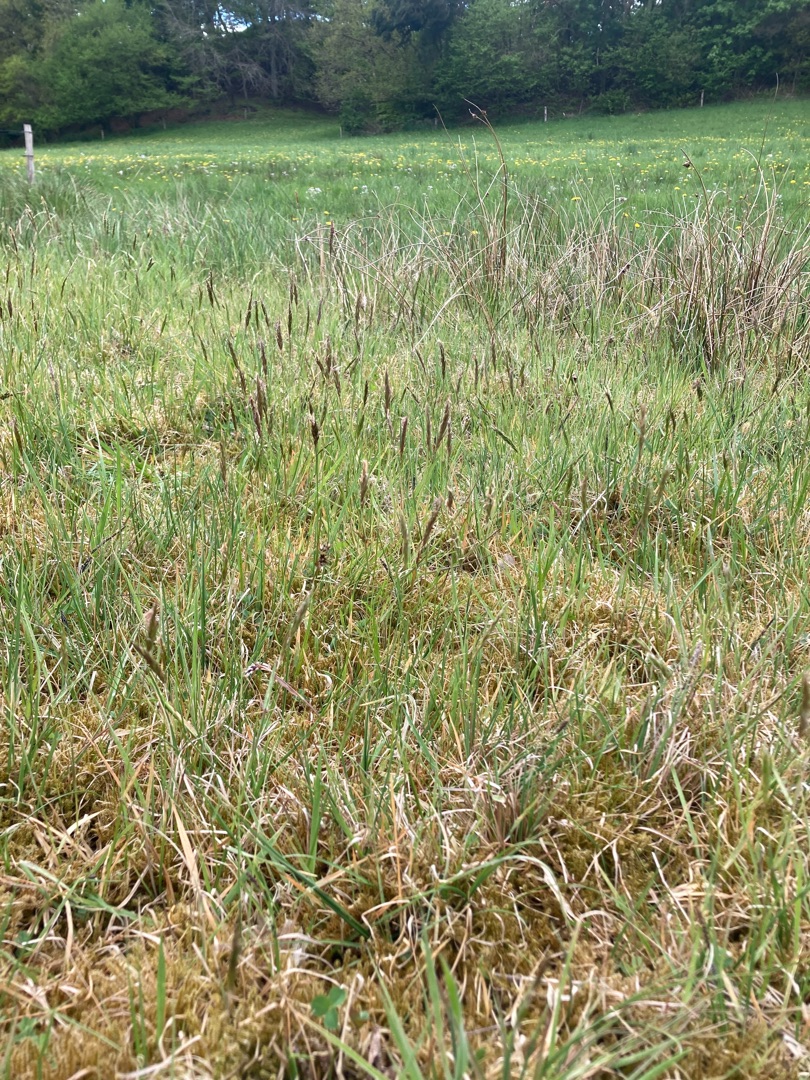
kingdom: Plantae
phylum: Tracheophyta
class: Liliopsida
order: Poales
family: Poaceae
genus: Anthoxanthum
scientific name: Anthoxanthum odoratum
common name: Vellugtende gulaks
